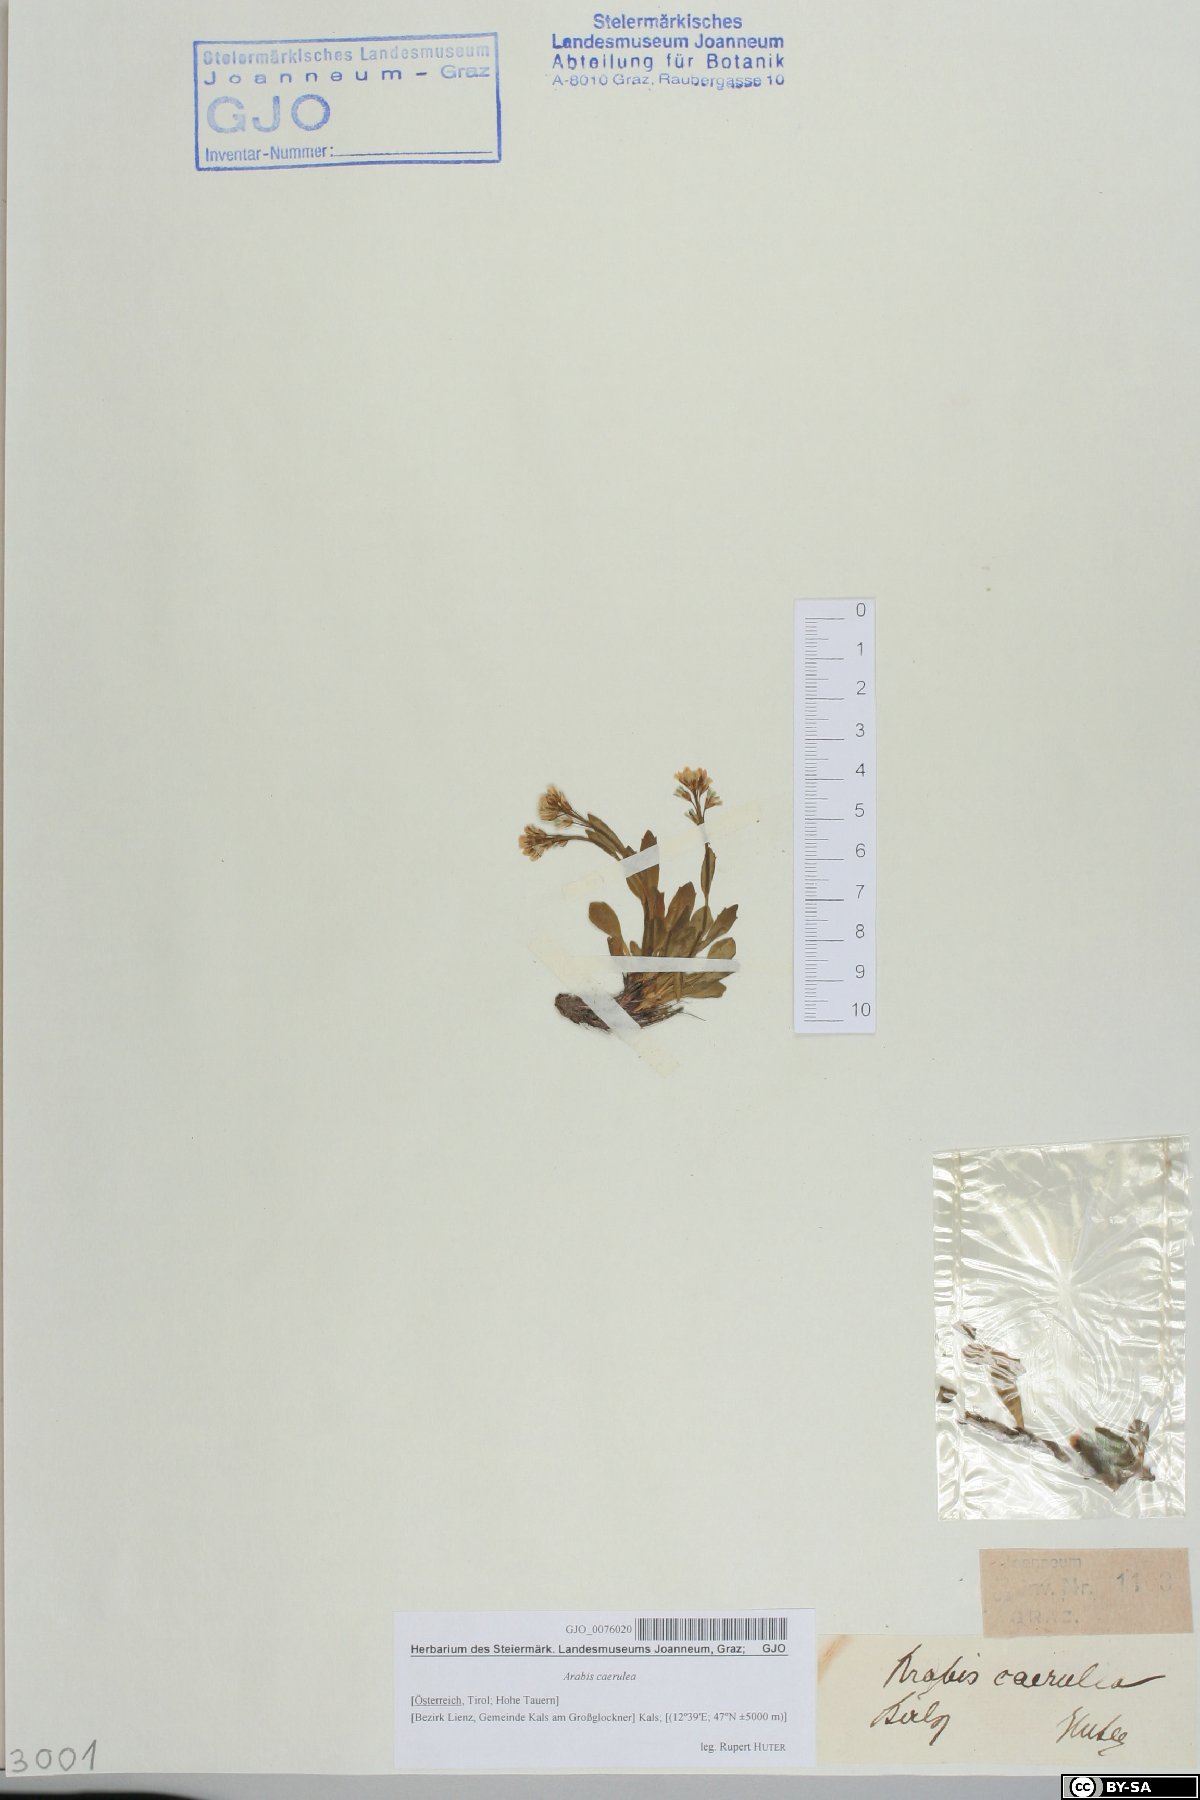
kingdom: Plantae
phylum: Tracheophyta
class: Magnoliopsida
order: Brassicales
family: Brassicaceae
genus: Arabis
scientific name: Arabis caerulea
